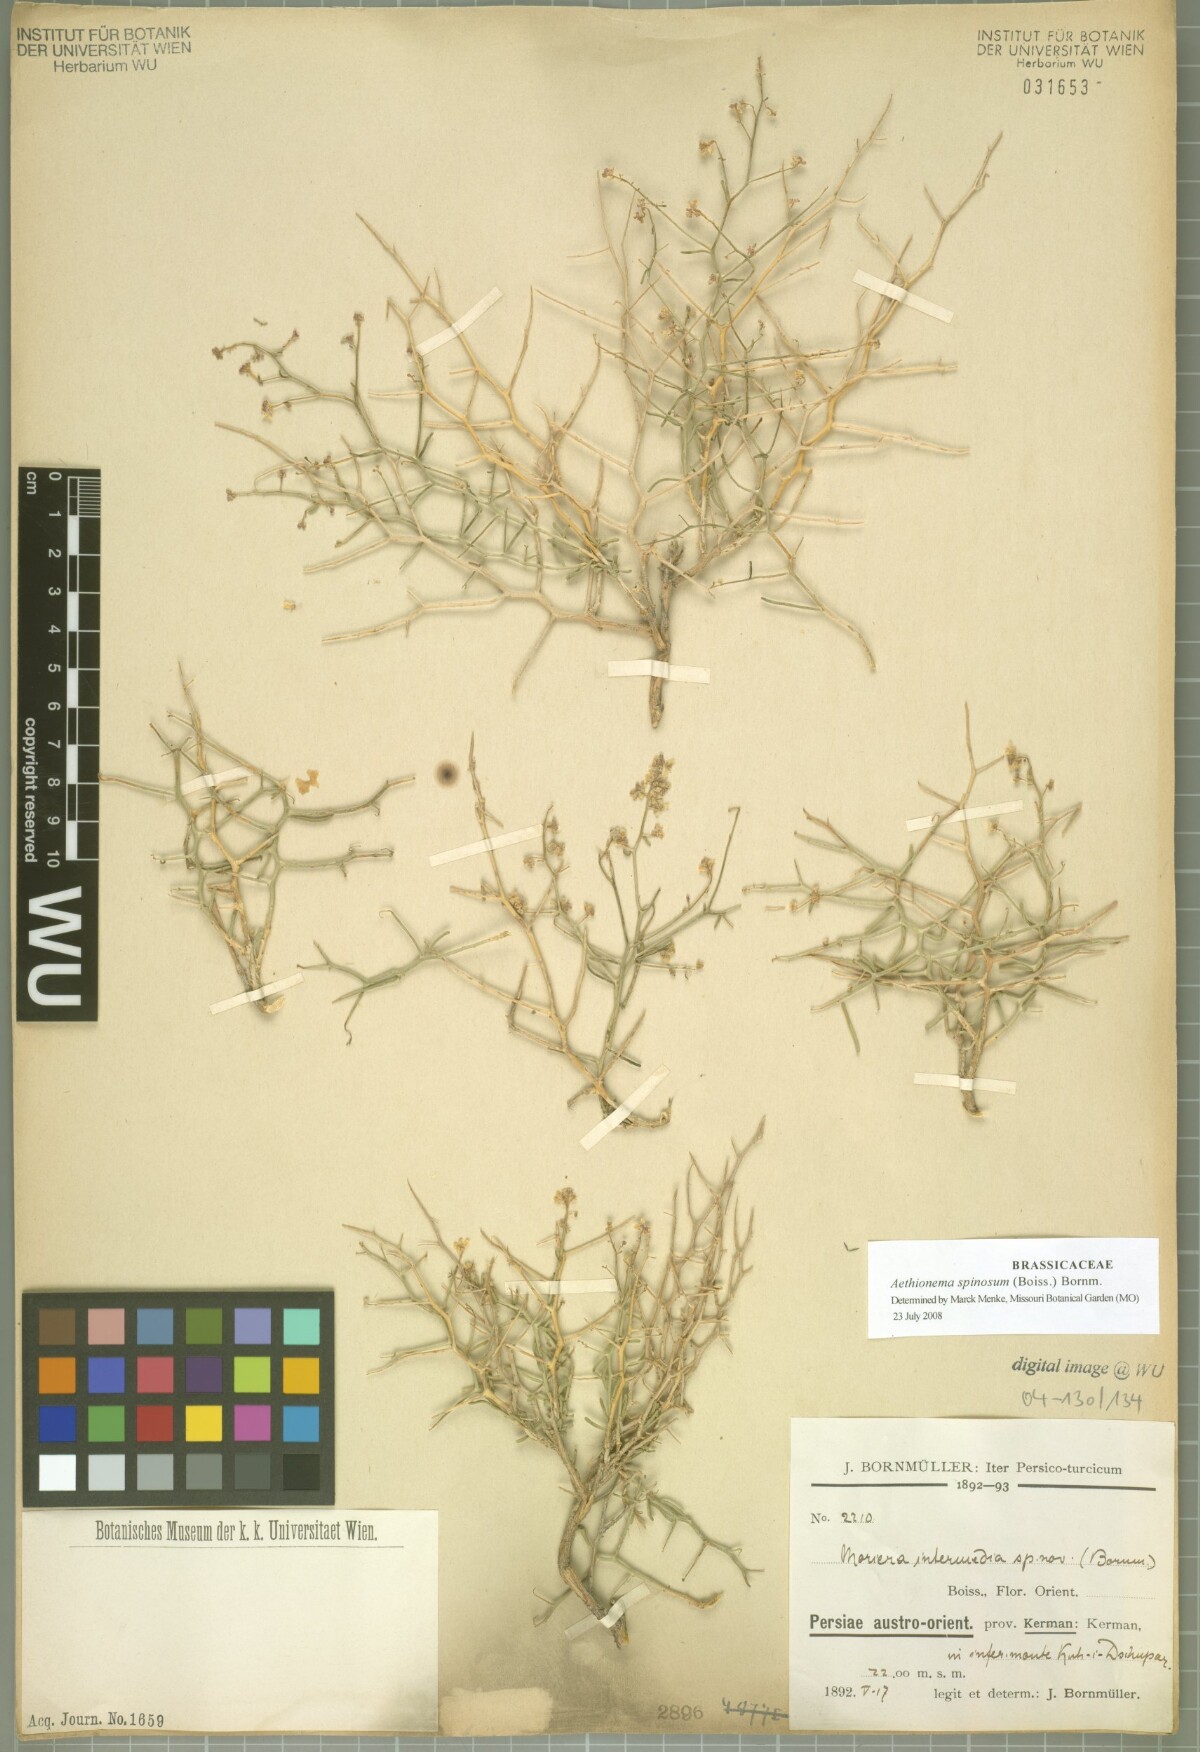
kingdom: Plantae
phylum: Tracheophyta
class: Magnoliopsida
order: Brassicales
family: Brassicaceae
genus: Moriera
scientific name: Moriera
